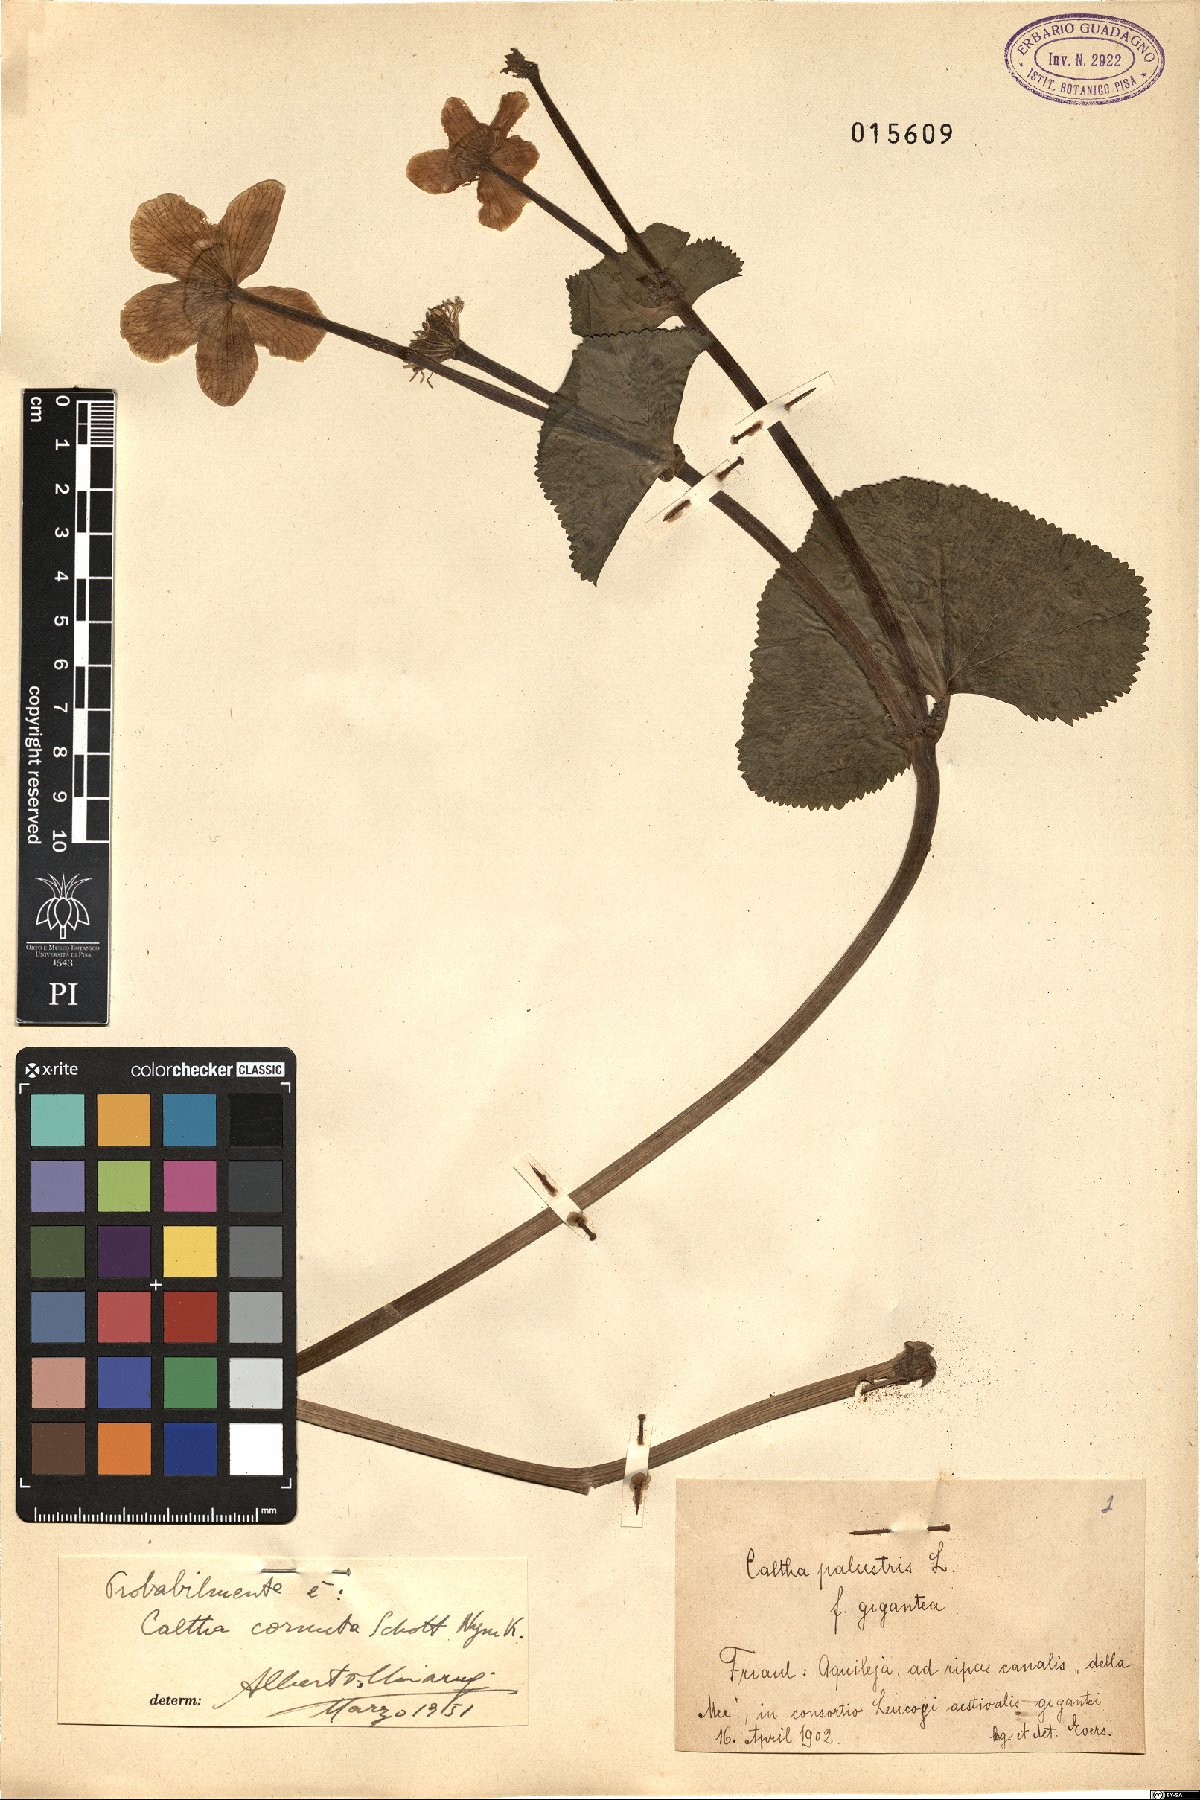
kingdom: Plantae
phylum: Tracheophyta
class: Magnoliopsida
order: Ranunculales
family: Ranunculaceae
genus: Caltha
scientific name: Caltha palustris
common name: Marsh marigold
